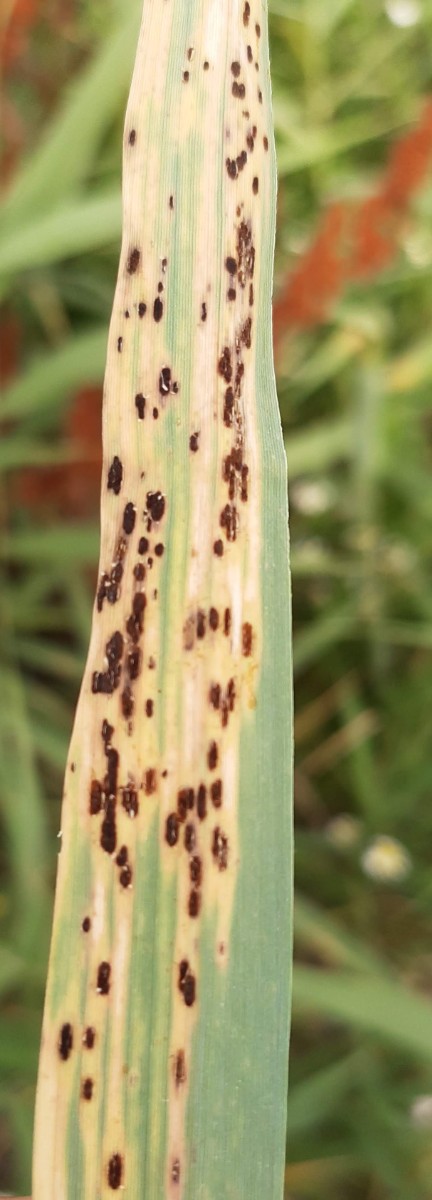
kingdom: Fungi
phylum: Basidiomycota
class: Pucciniomycetes
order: Pucciniales
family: Pucciniaceae
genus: Puccinia
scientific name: Puccinia phragmitis
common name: tagrør-tvecellerust
